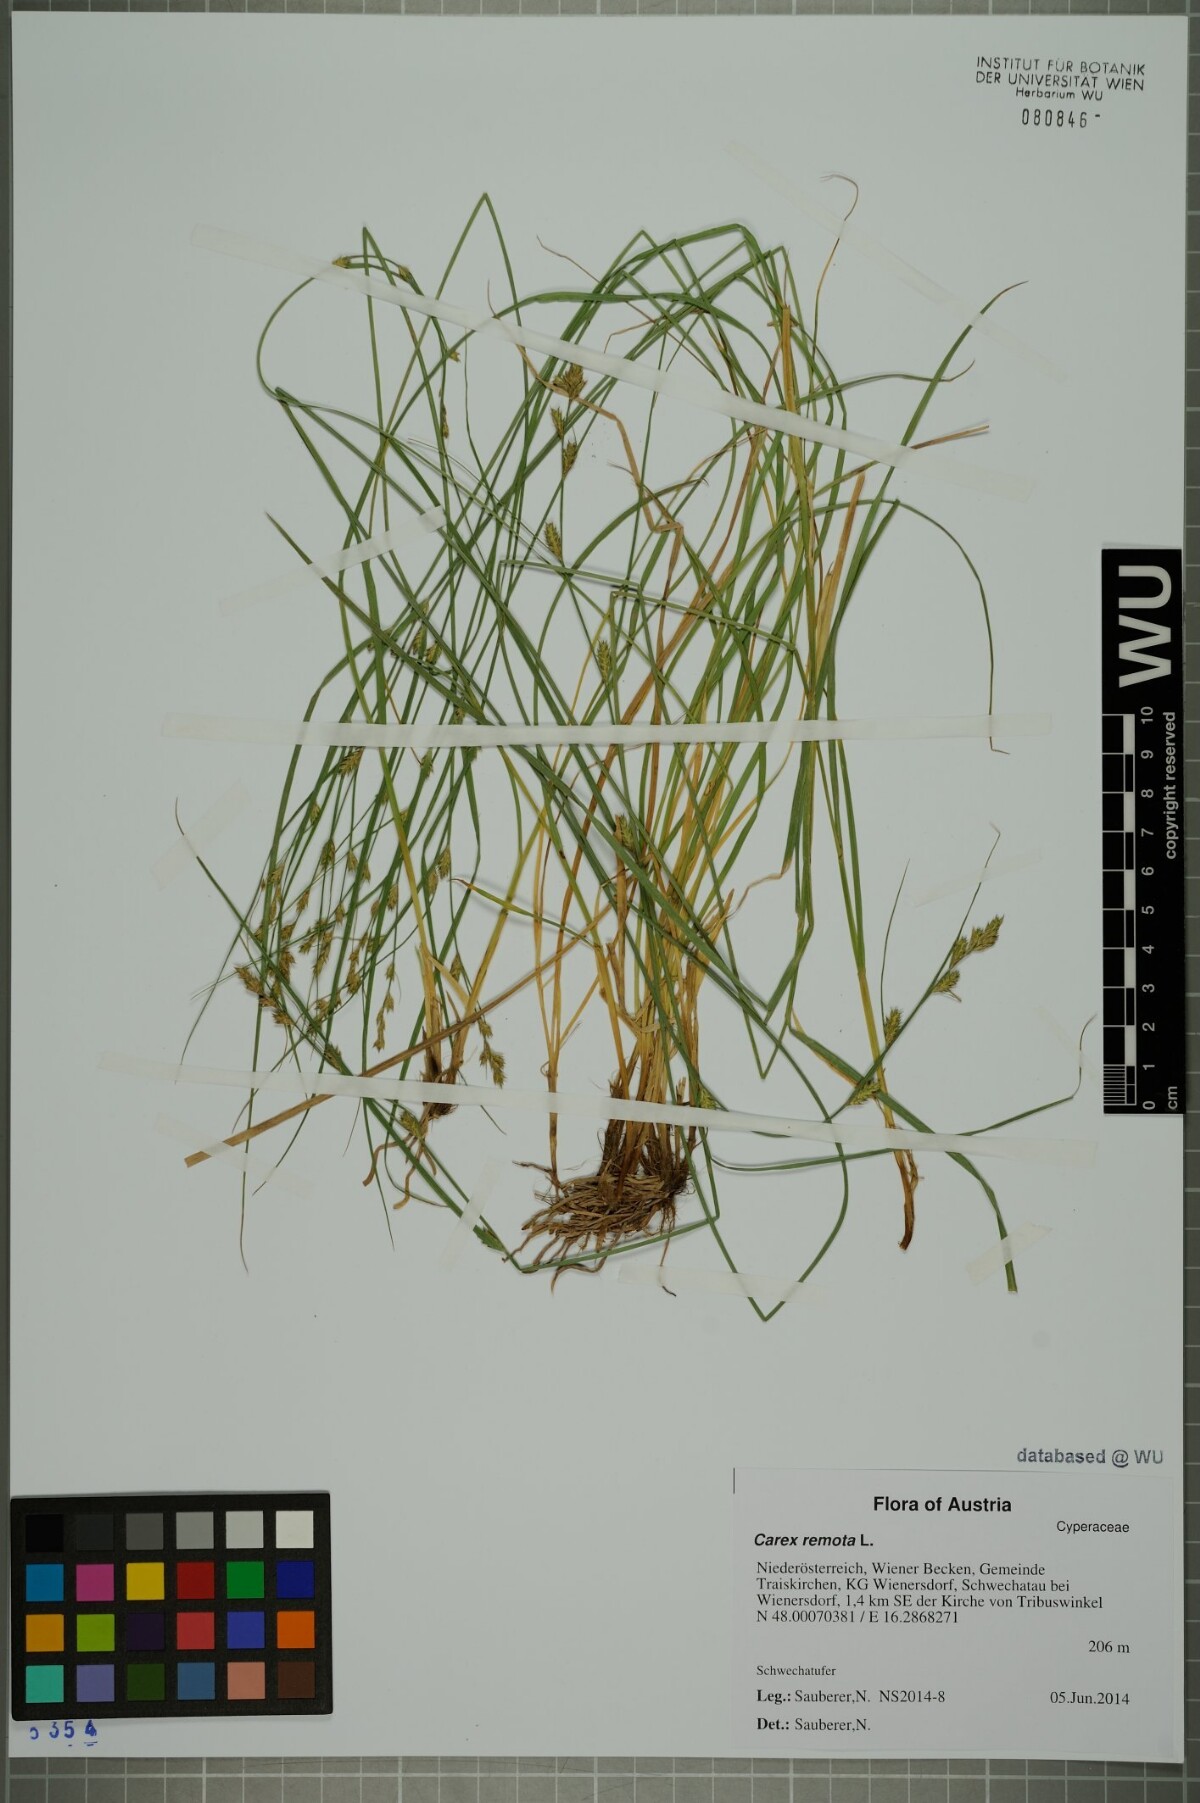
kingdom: Plantae
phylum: Tracheophyta
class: Liliopsida
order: Poales
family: Cyperaceae
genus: Carex
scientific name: Carex remota
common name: Remote sedge
